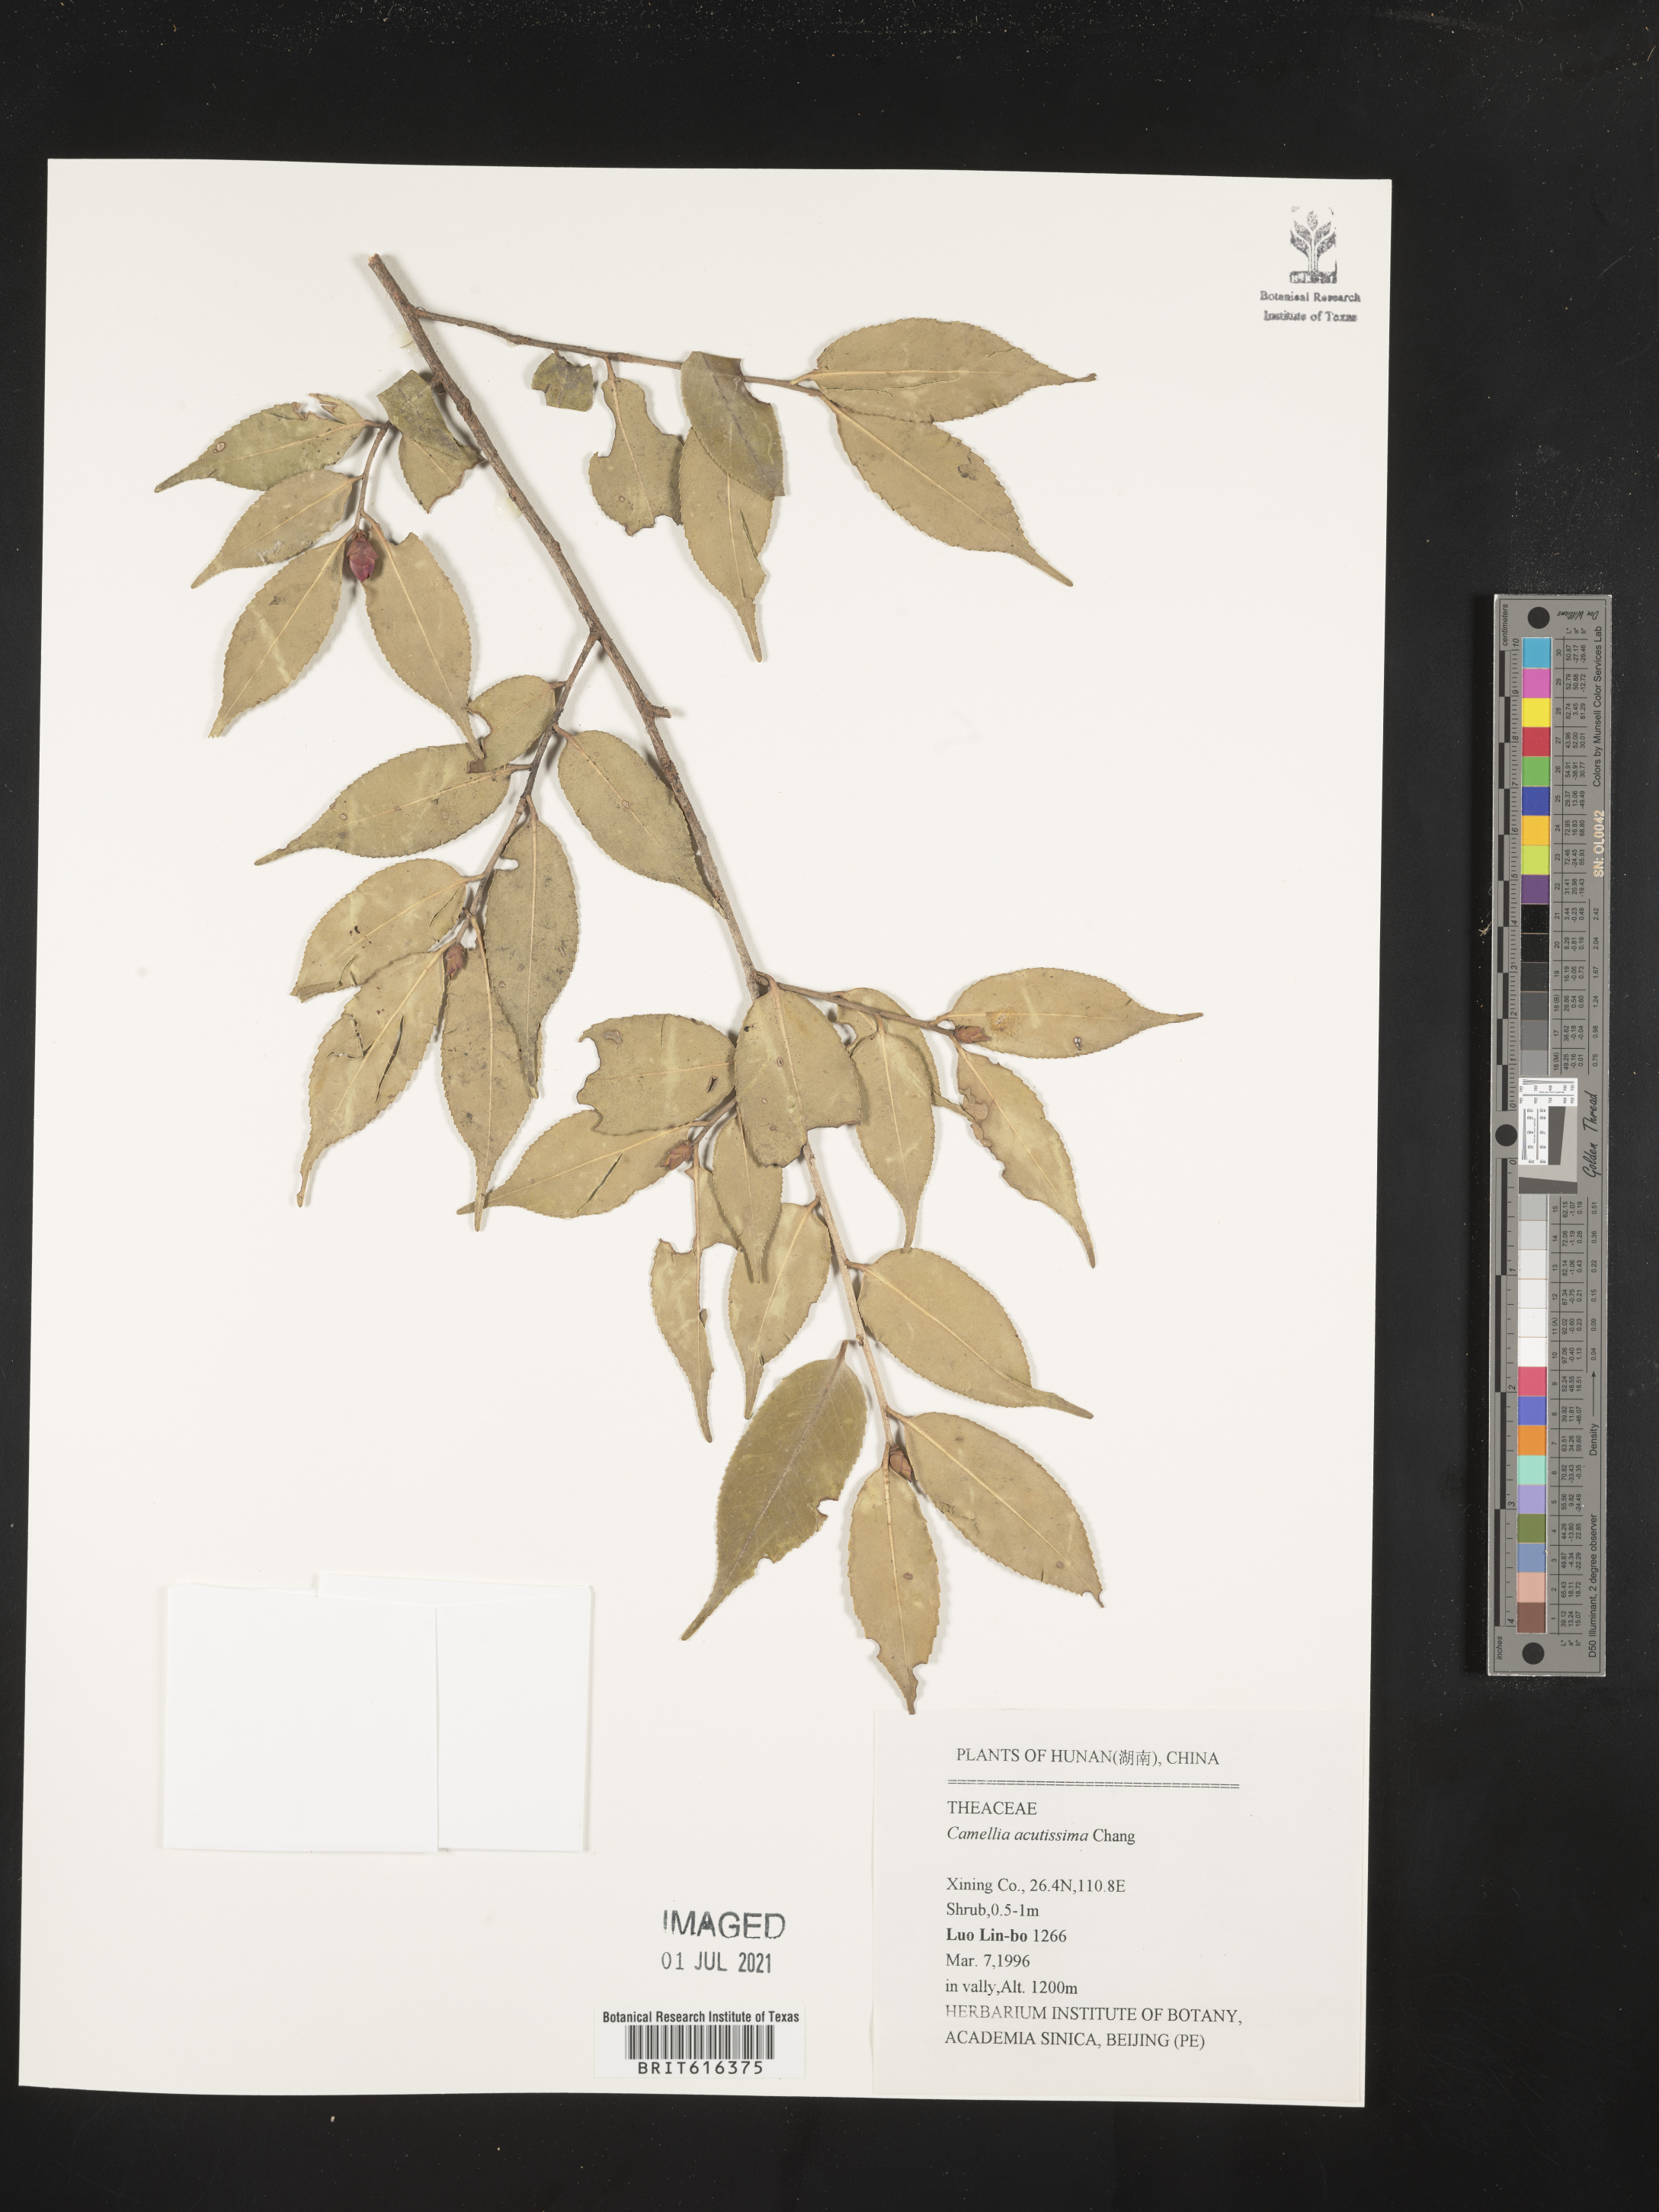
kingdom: Plantae
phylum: Tracheophyta
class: Magnoliopsida
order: Ericales
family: Theaceae
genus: Camellia
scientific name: Camellia cuspidata
